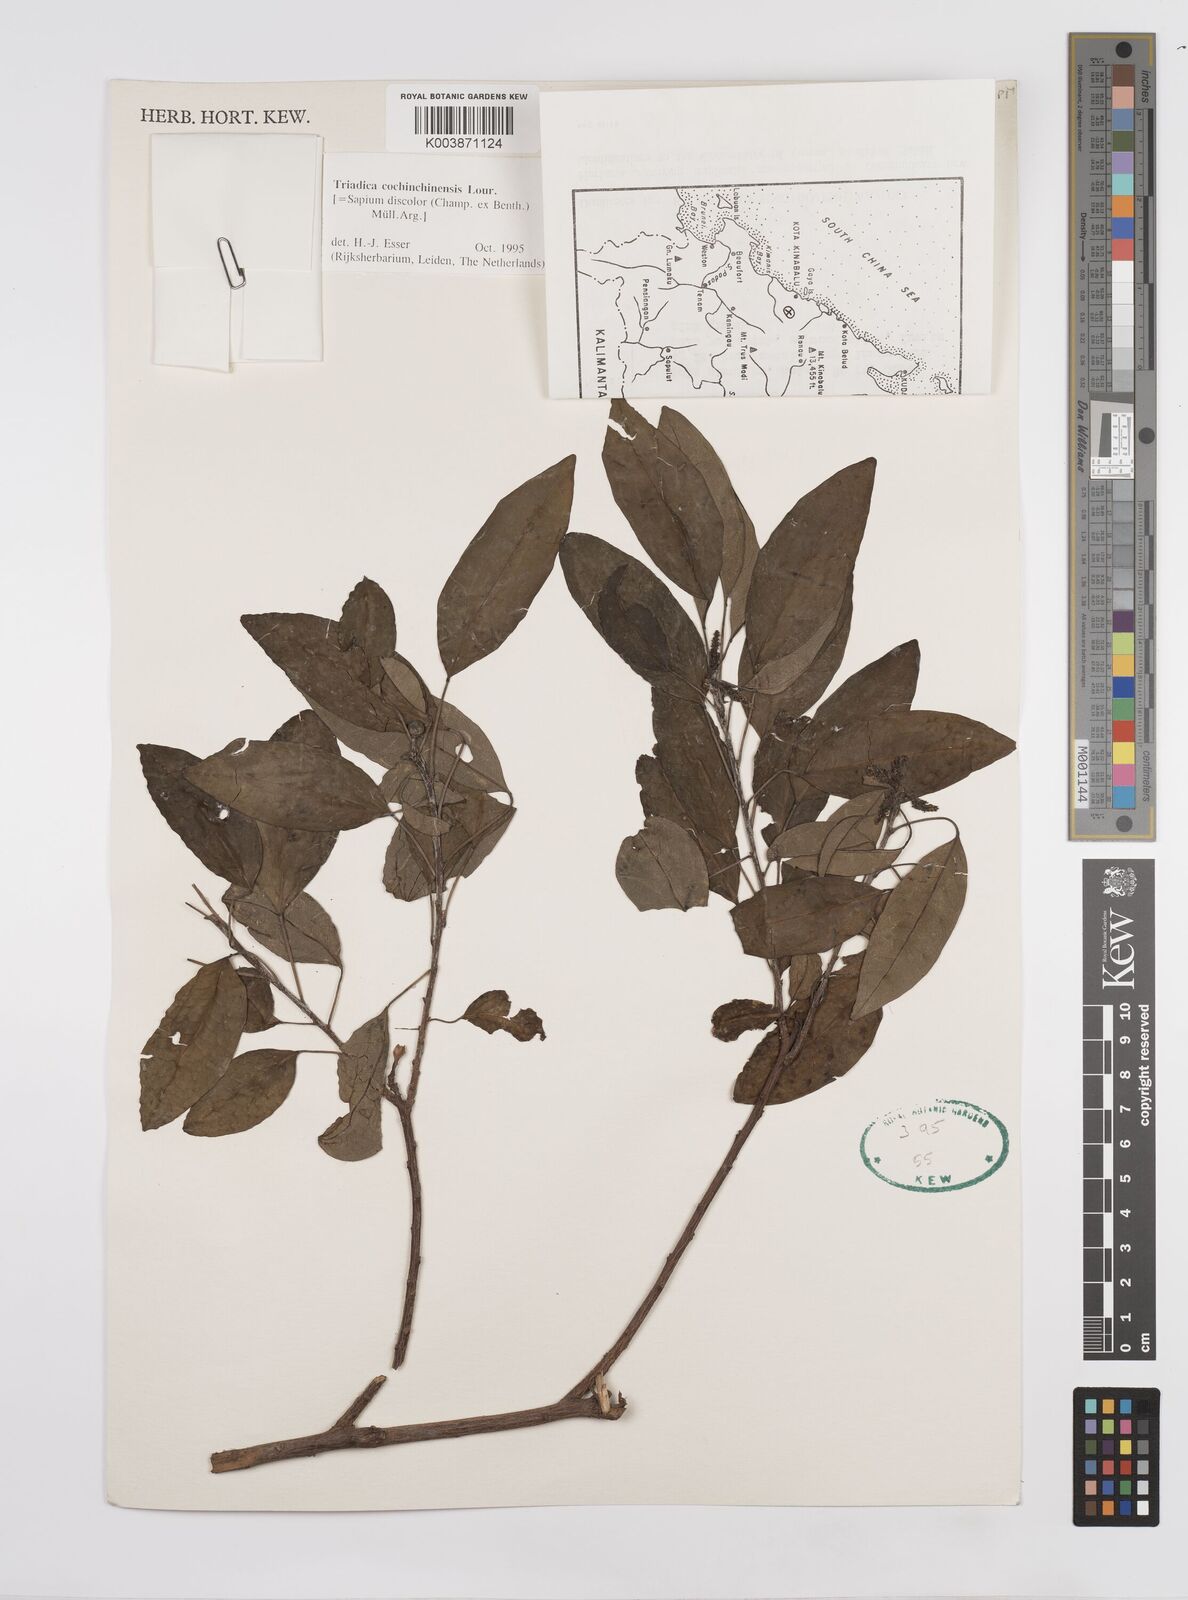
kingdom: Plantae
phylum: Tracheophyta
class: Magnoliopsida
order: Malpighiales
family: Euphorbiaceae
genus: Triadica
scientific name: Triadica cochinchinensis
